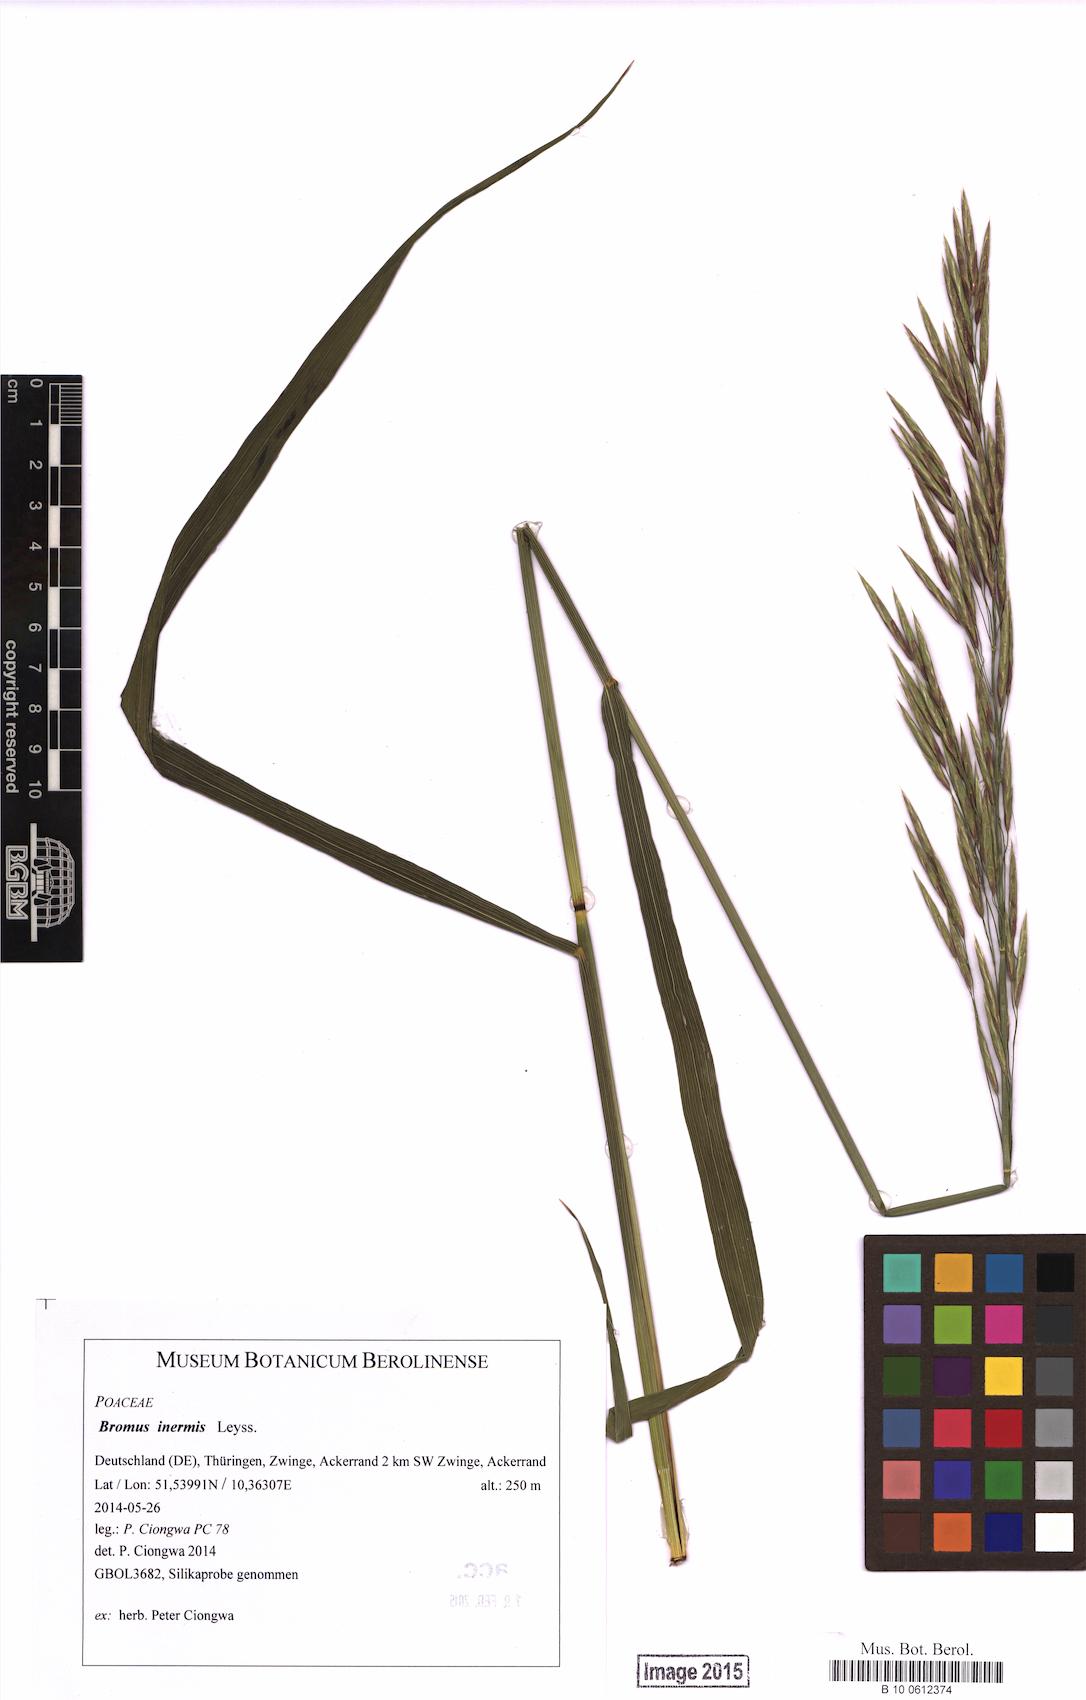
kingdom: Plantae
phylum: Tracheophyta
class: Liliopsida
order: Poales
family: Poaceae
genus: Bromus
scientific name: Bromus inermis
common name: Smooth brome
